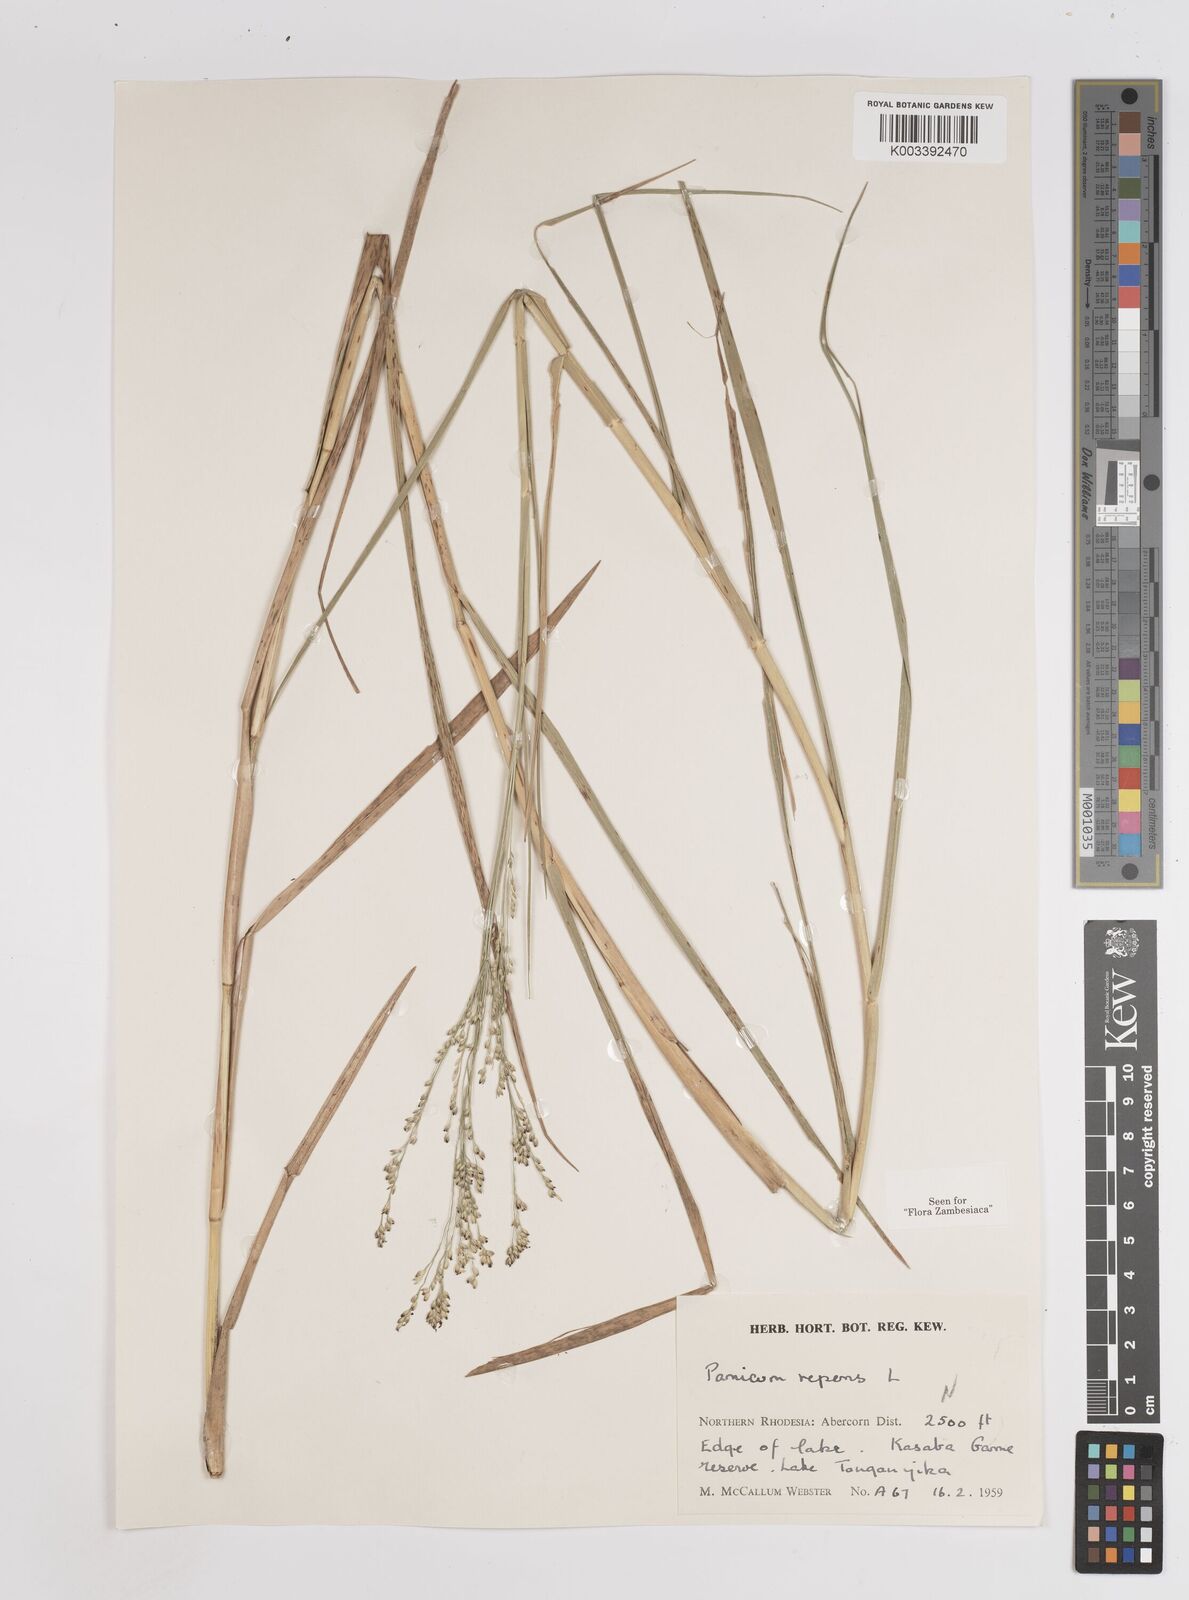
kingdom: Plantae
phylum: Tracheophyta
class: Liliopsida
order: Poales
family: Poaceae
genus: Panicum
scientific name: Panicum repens
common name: Torpedo grass
